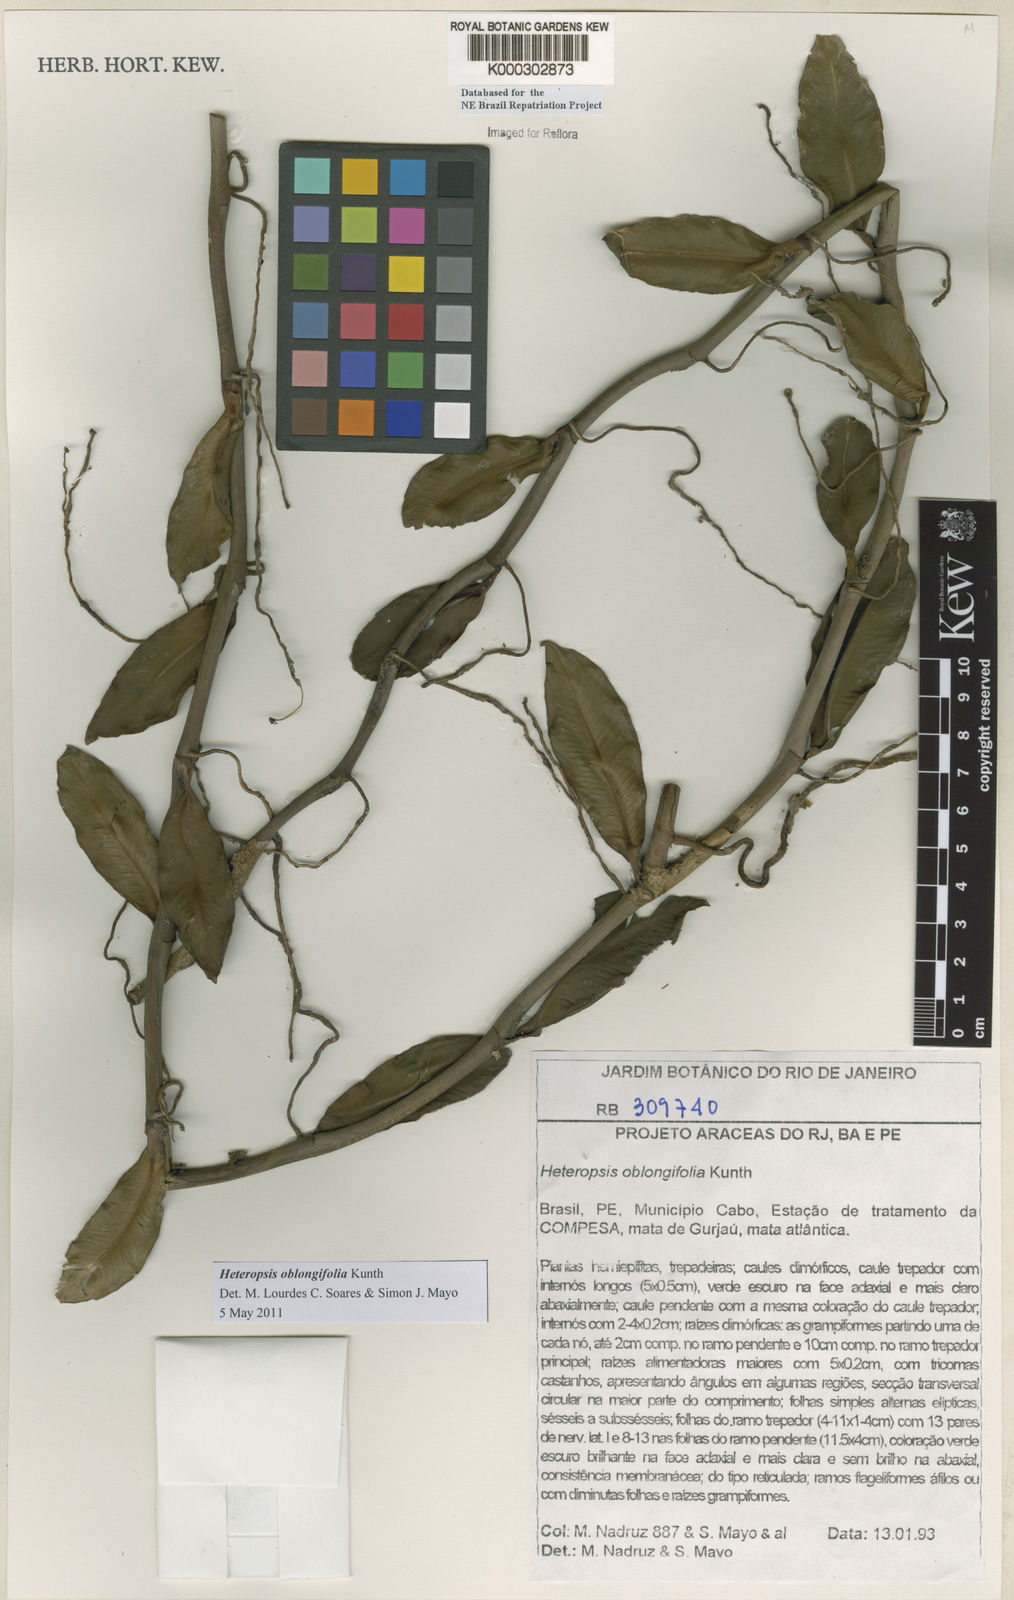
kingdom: Plantae
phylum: Tracheophyta
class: Liliopsida
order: Alismatales
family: Araceae
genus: Heteropsis
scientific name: Heteropsis oblongifolia
